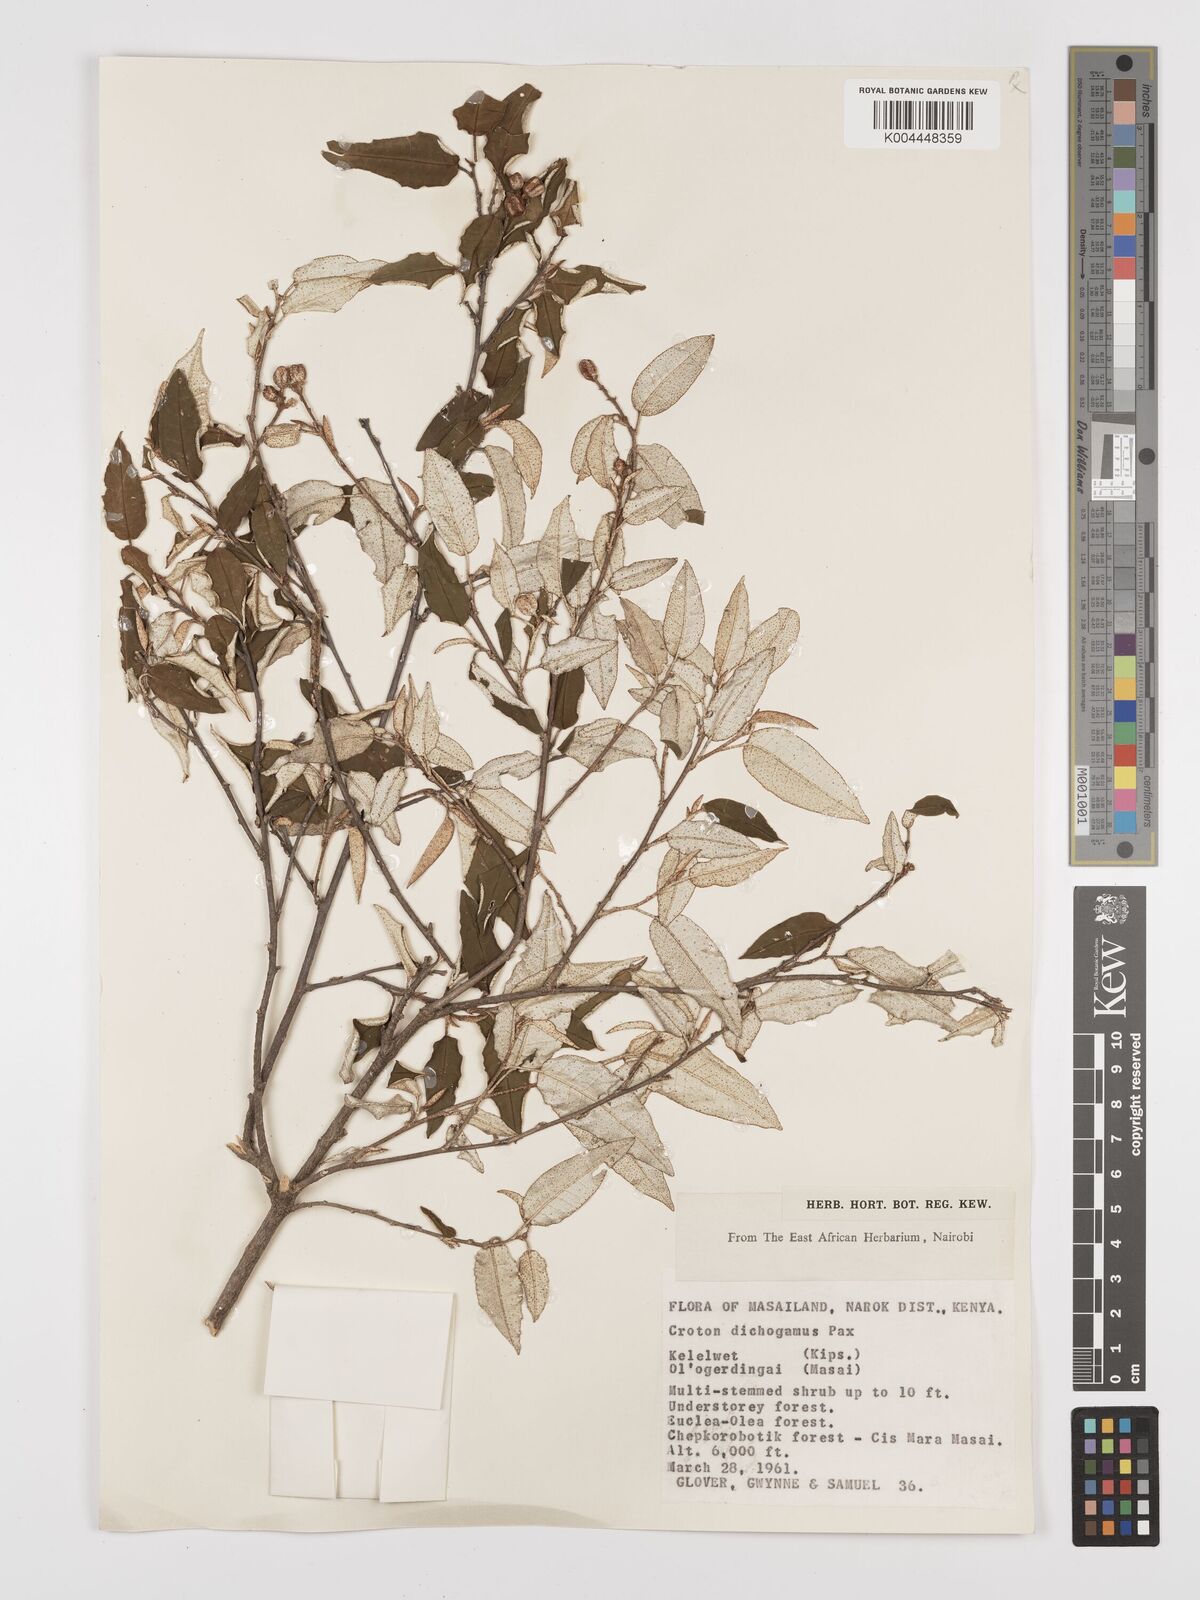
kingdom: Plantae
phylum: Tracheophyta
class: Magnoliopsida
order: Malpighiales
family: Euphorbiaceae
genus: Croton
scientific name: Croton dichogamus
